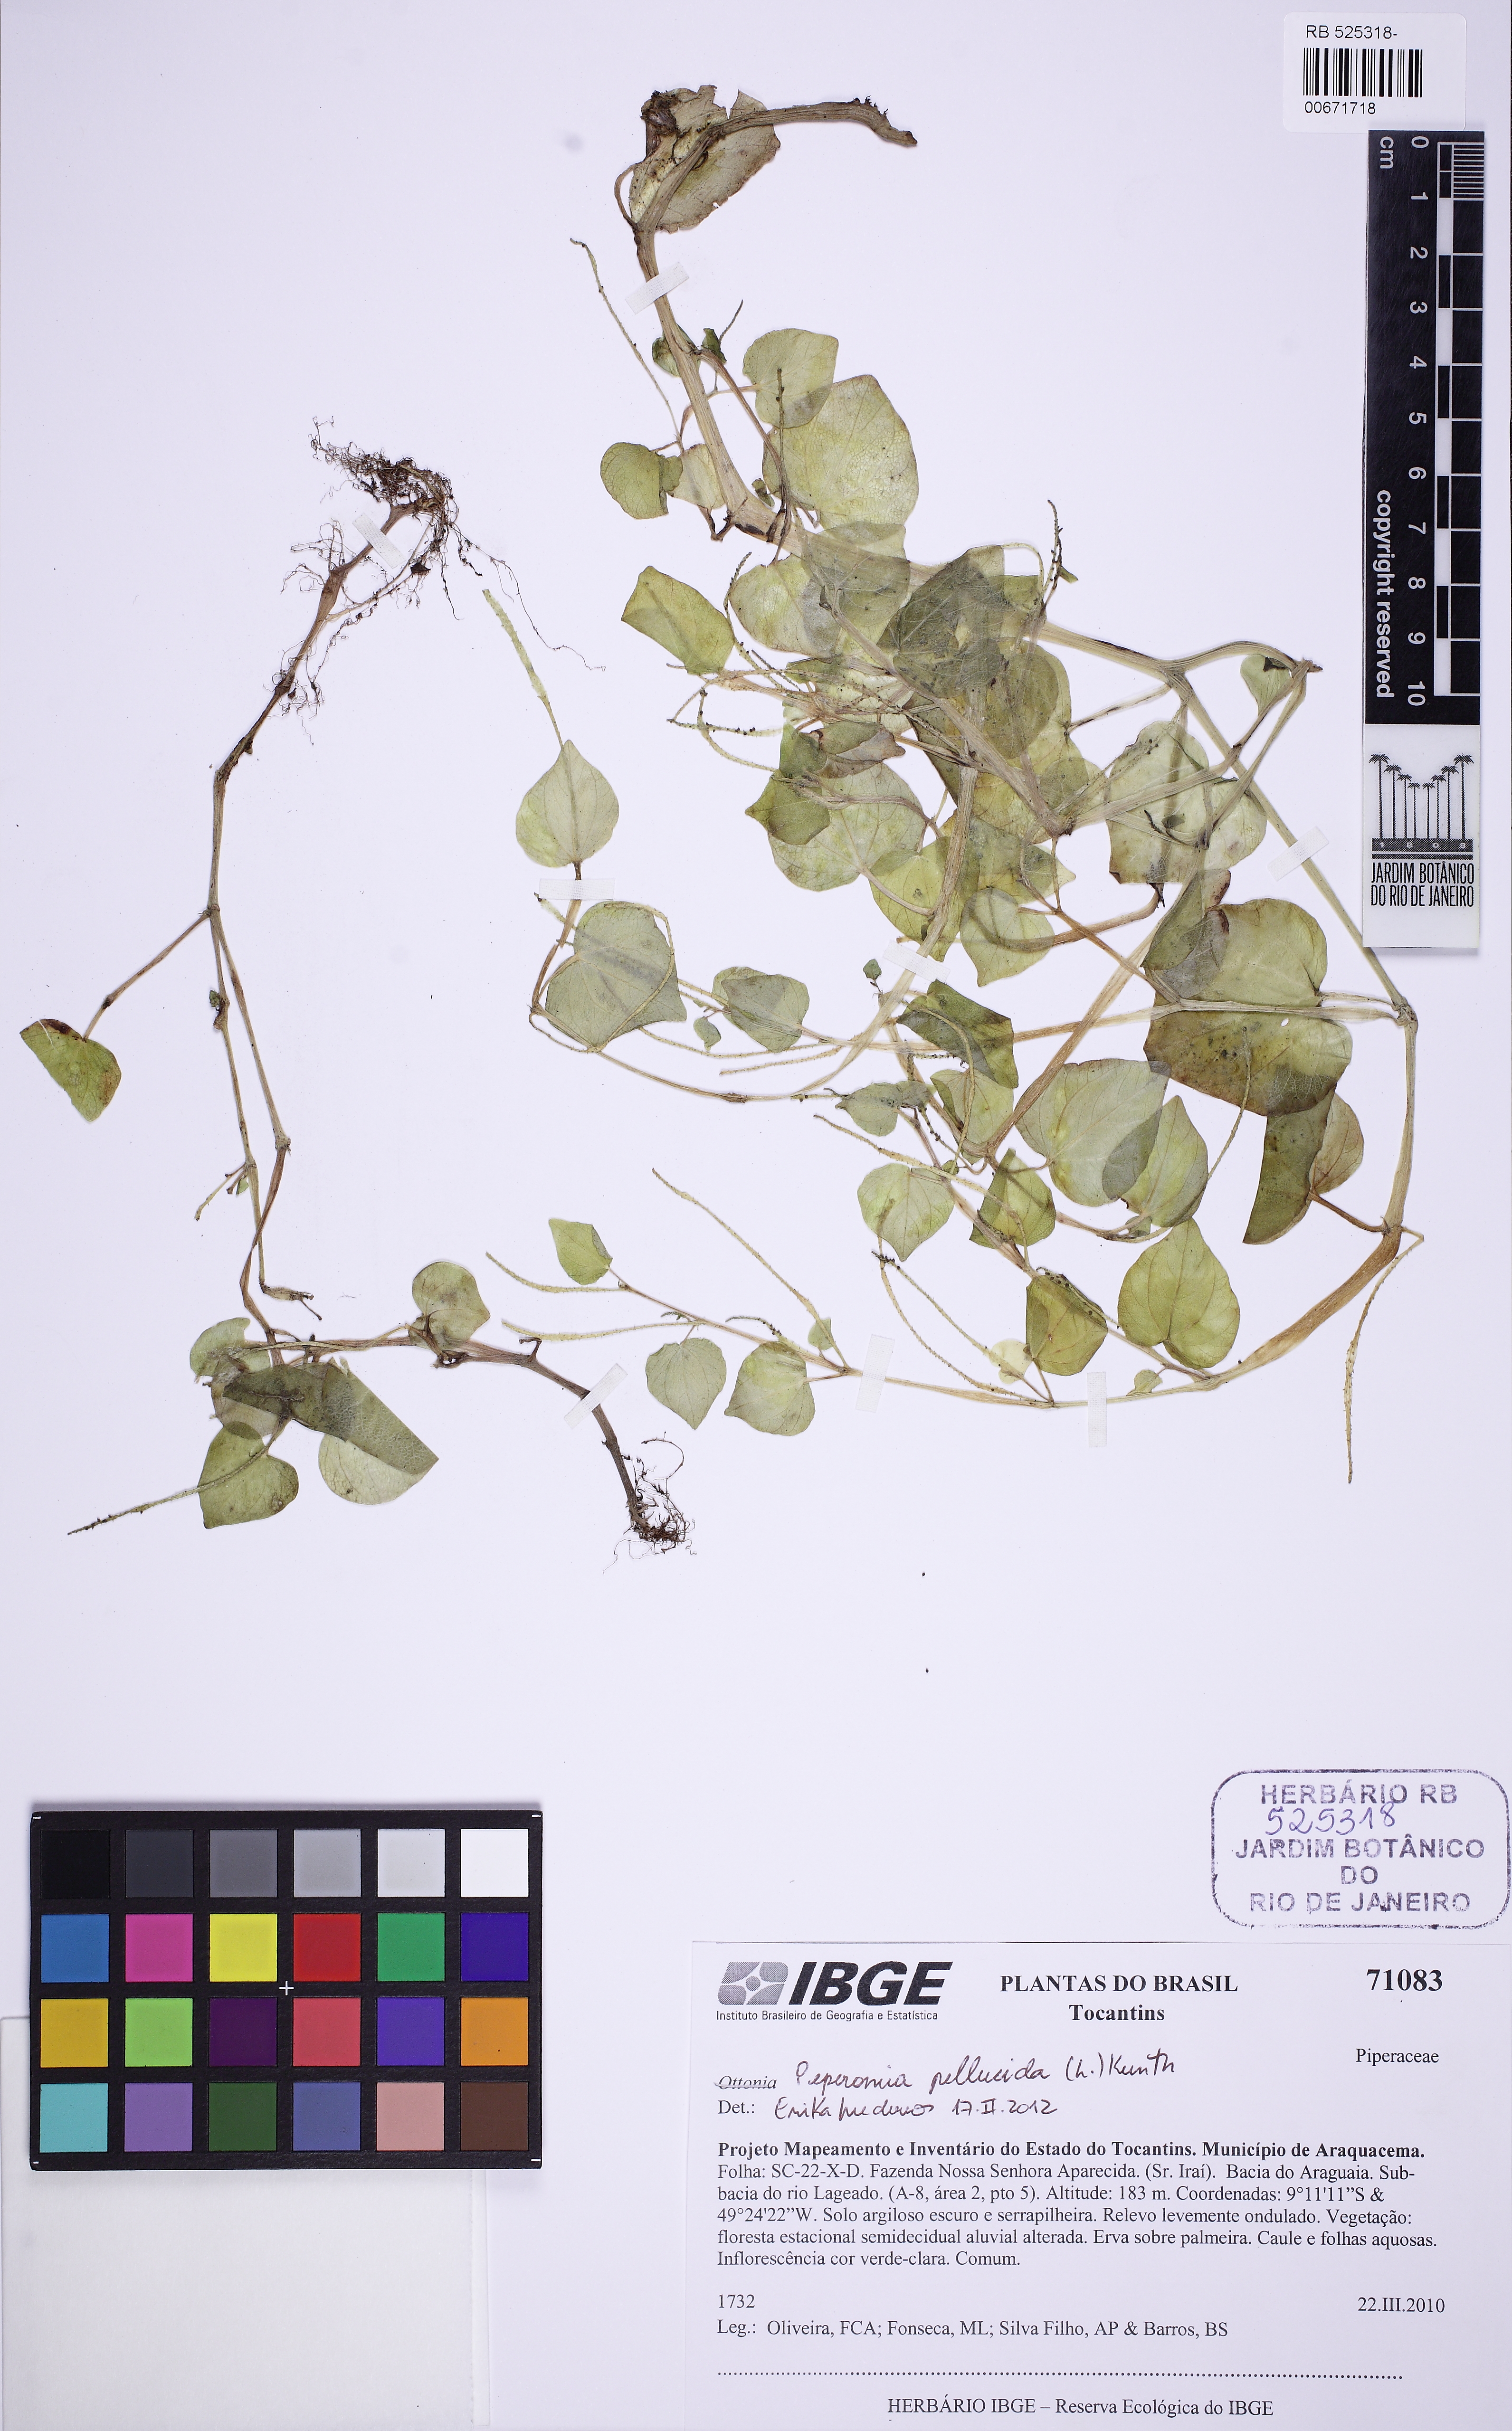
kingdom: Plantae
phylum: Tracheophyta
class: Magnoliopsida
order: Piperales
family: Piperaceae
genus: Peperomia
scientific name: Peperomia pellucida
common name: Man to man
